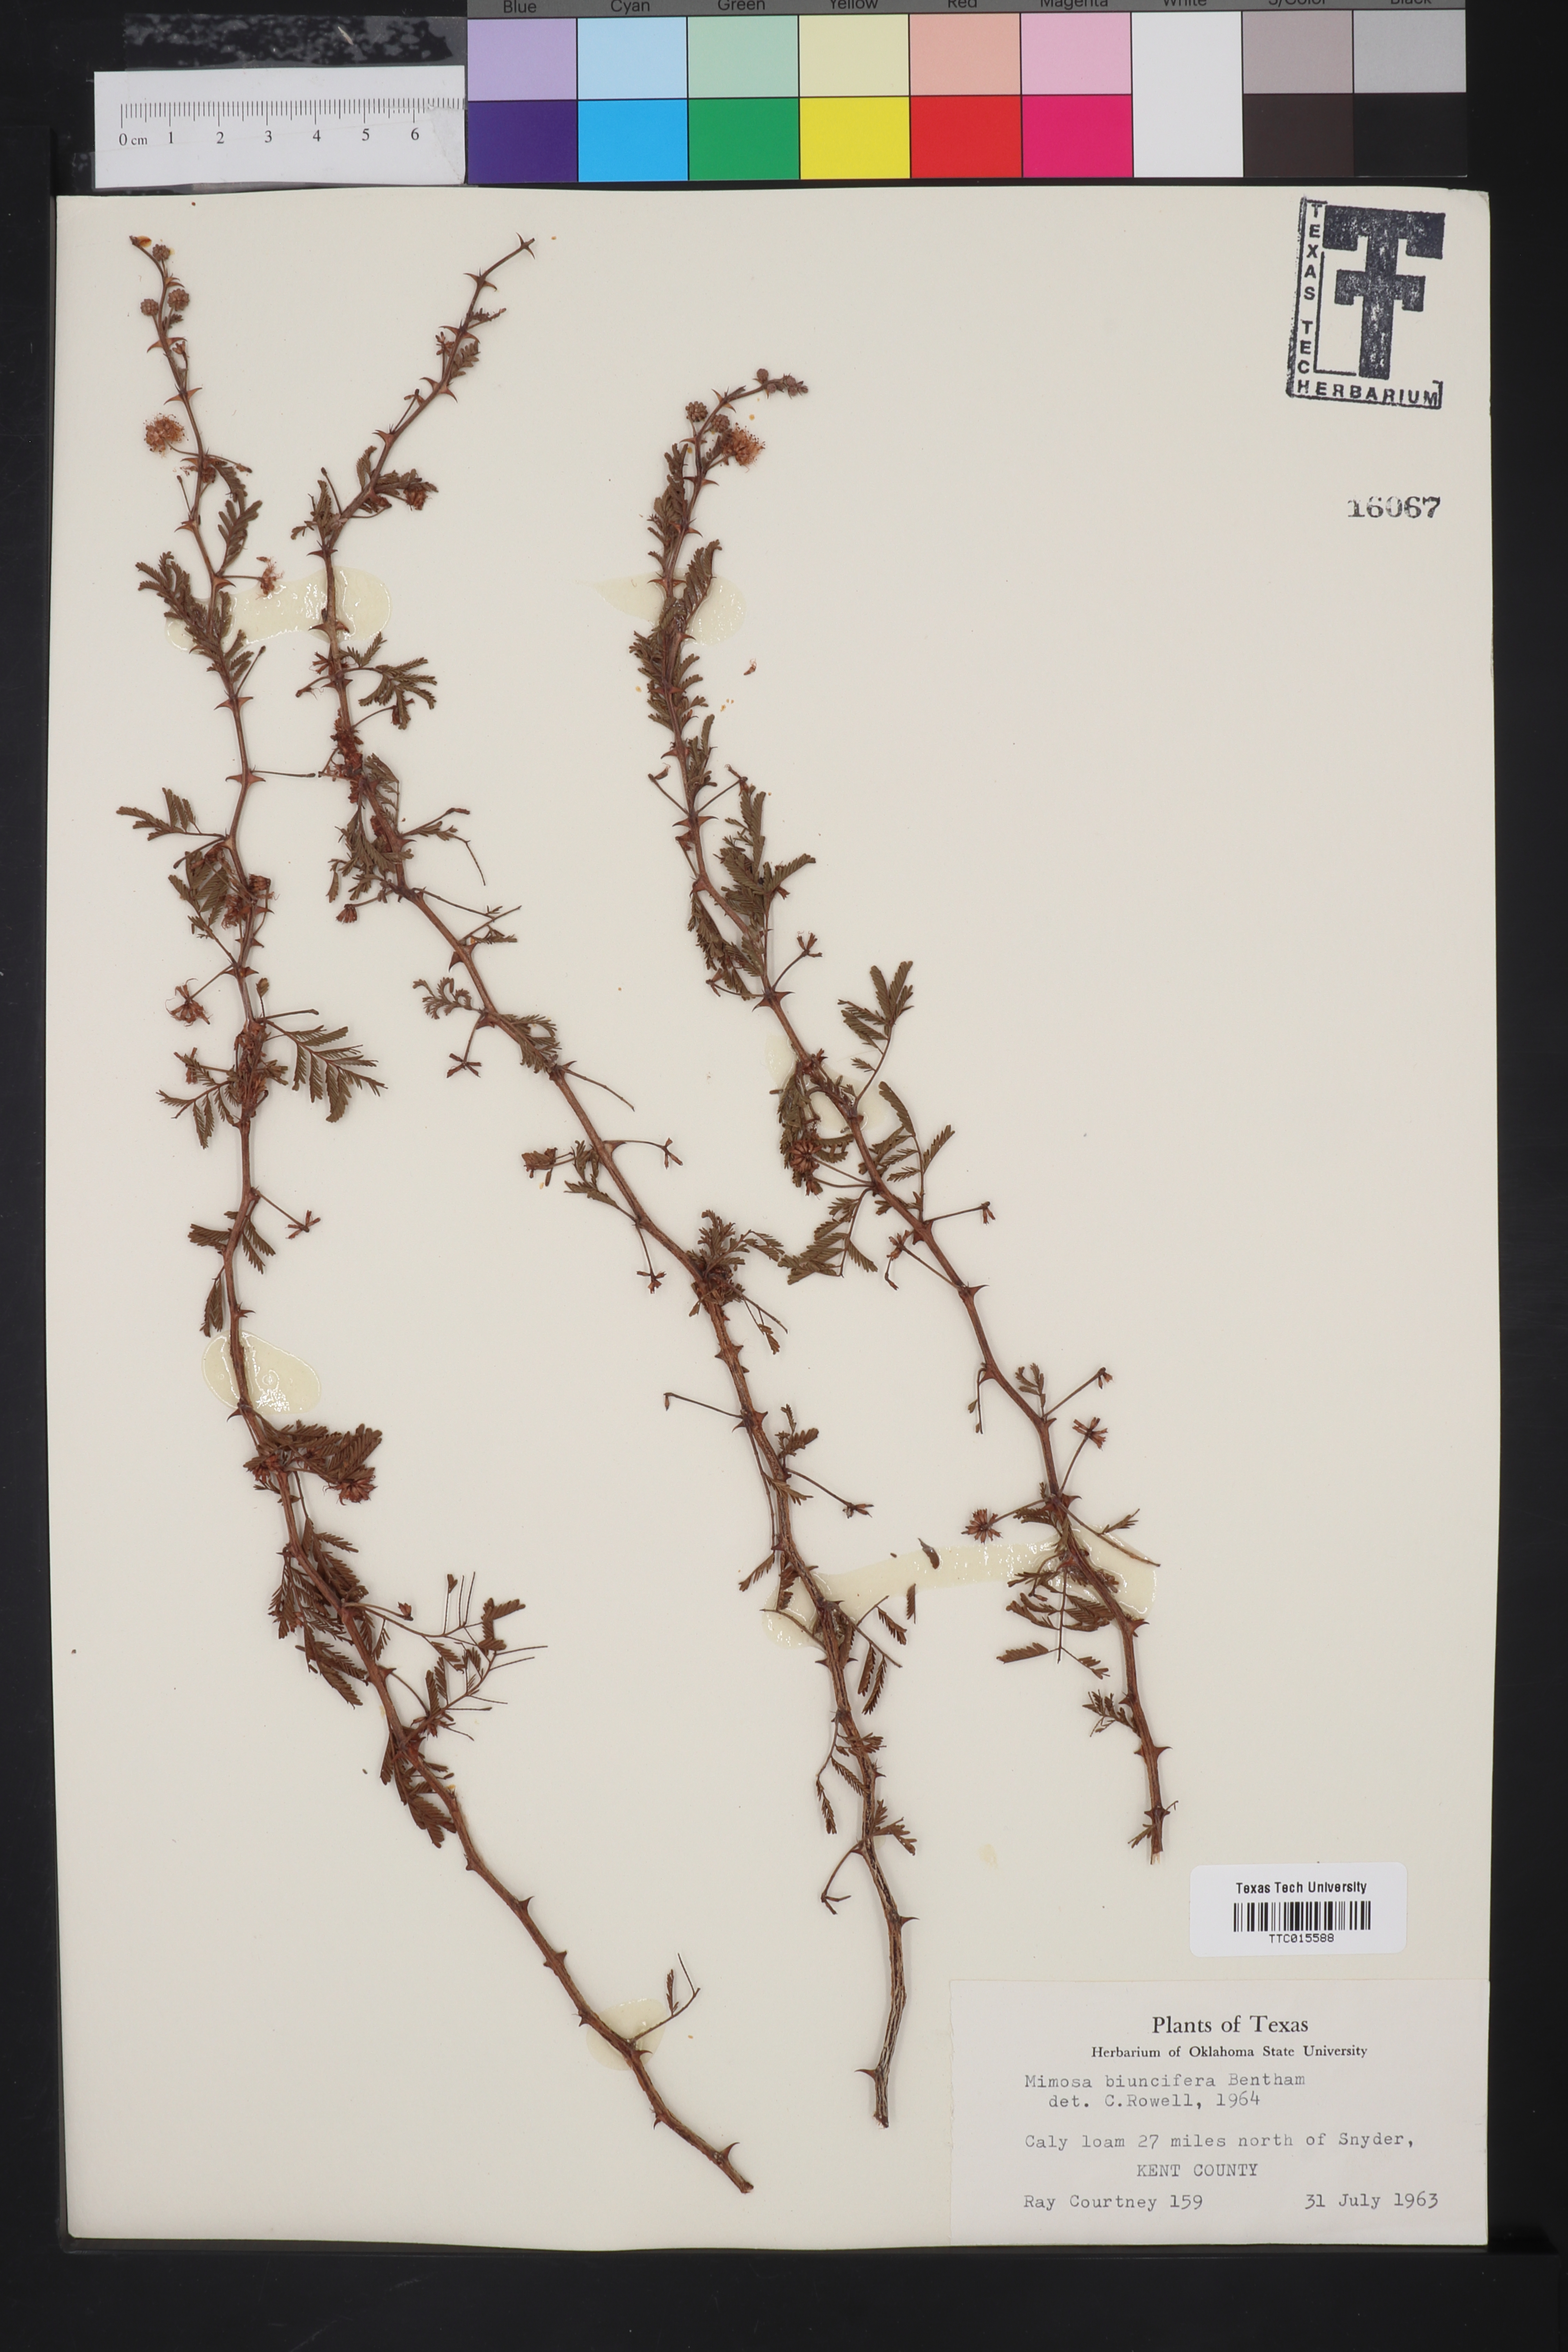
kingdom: Plantae
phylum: Tracheophyta
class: Magnoliopsida
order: Fabales
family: Fabaceae
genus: Mimosa
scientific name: Mimosa biuncifera
